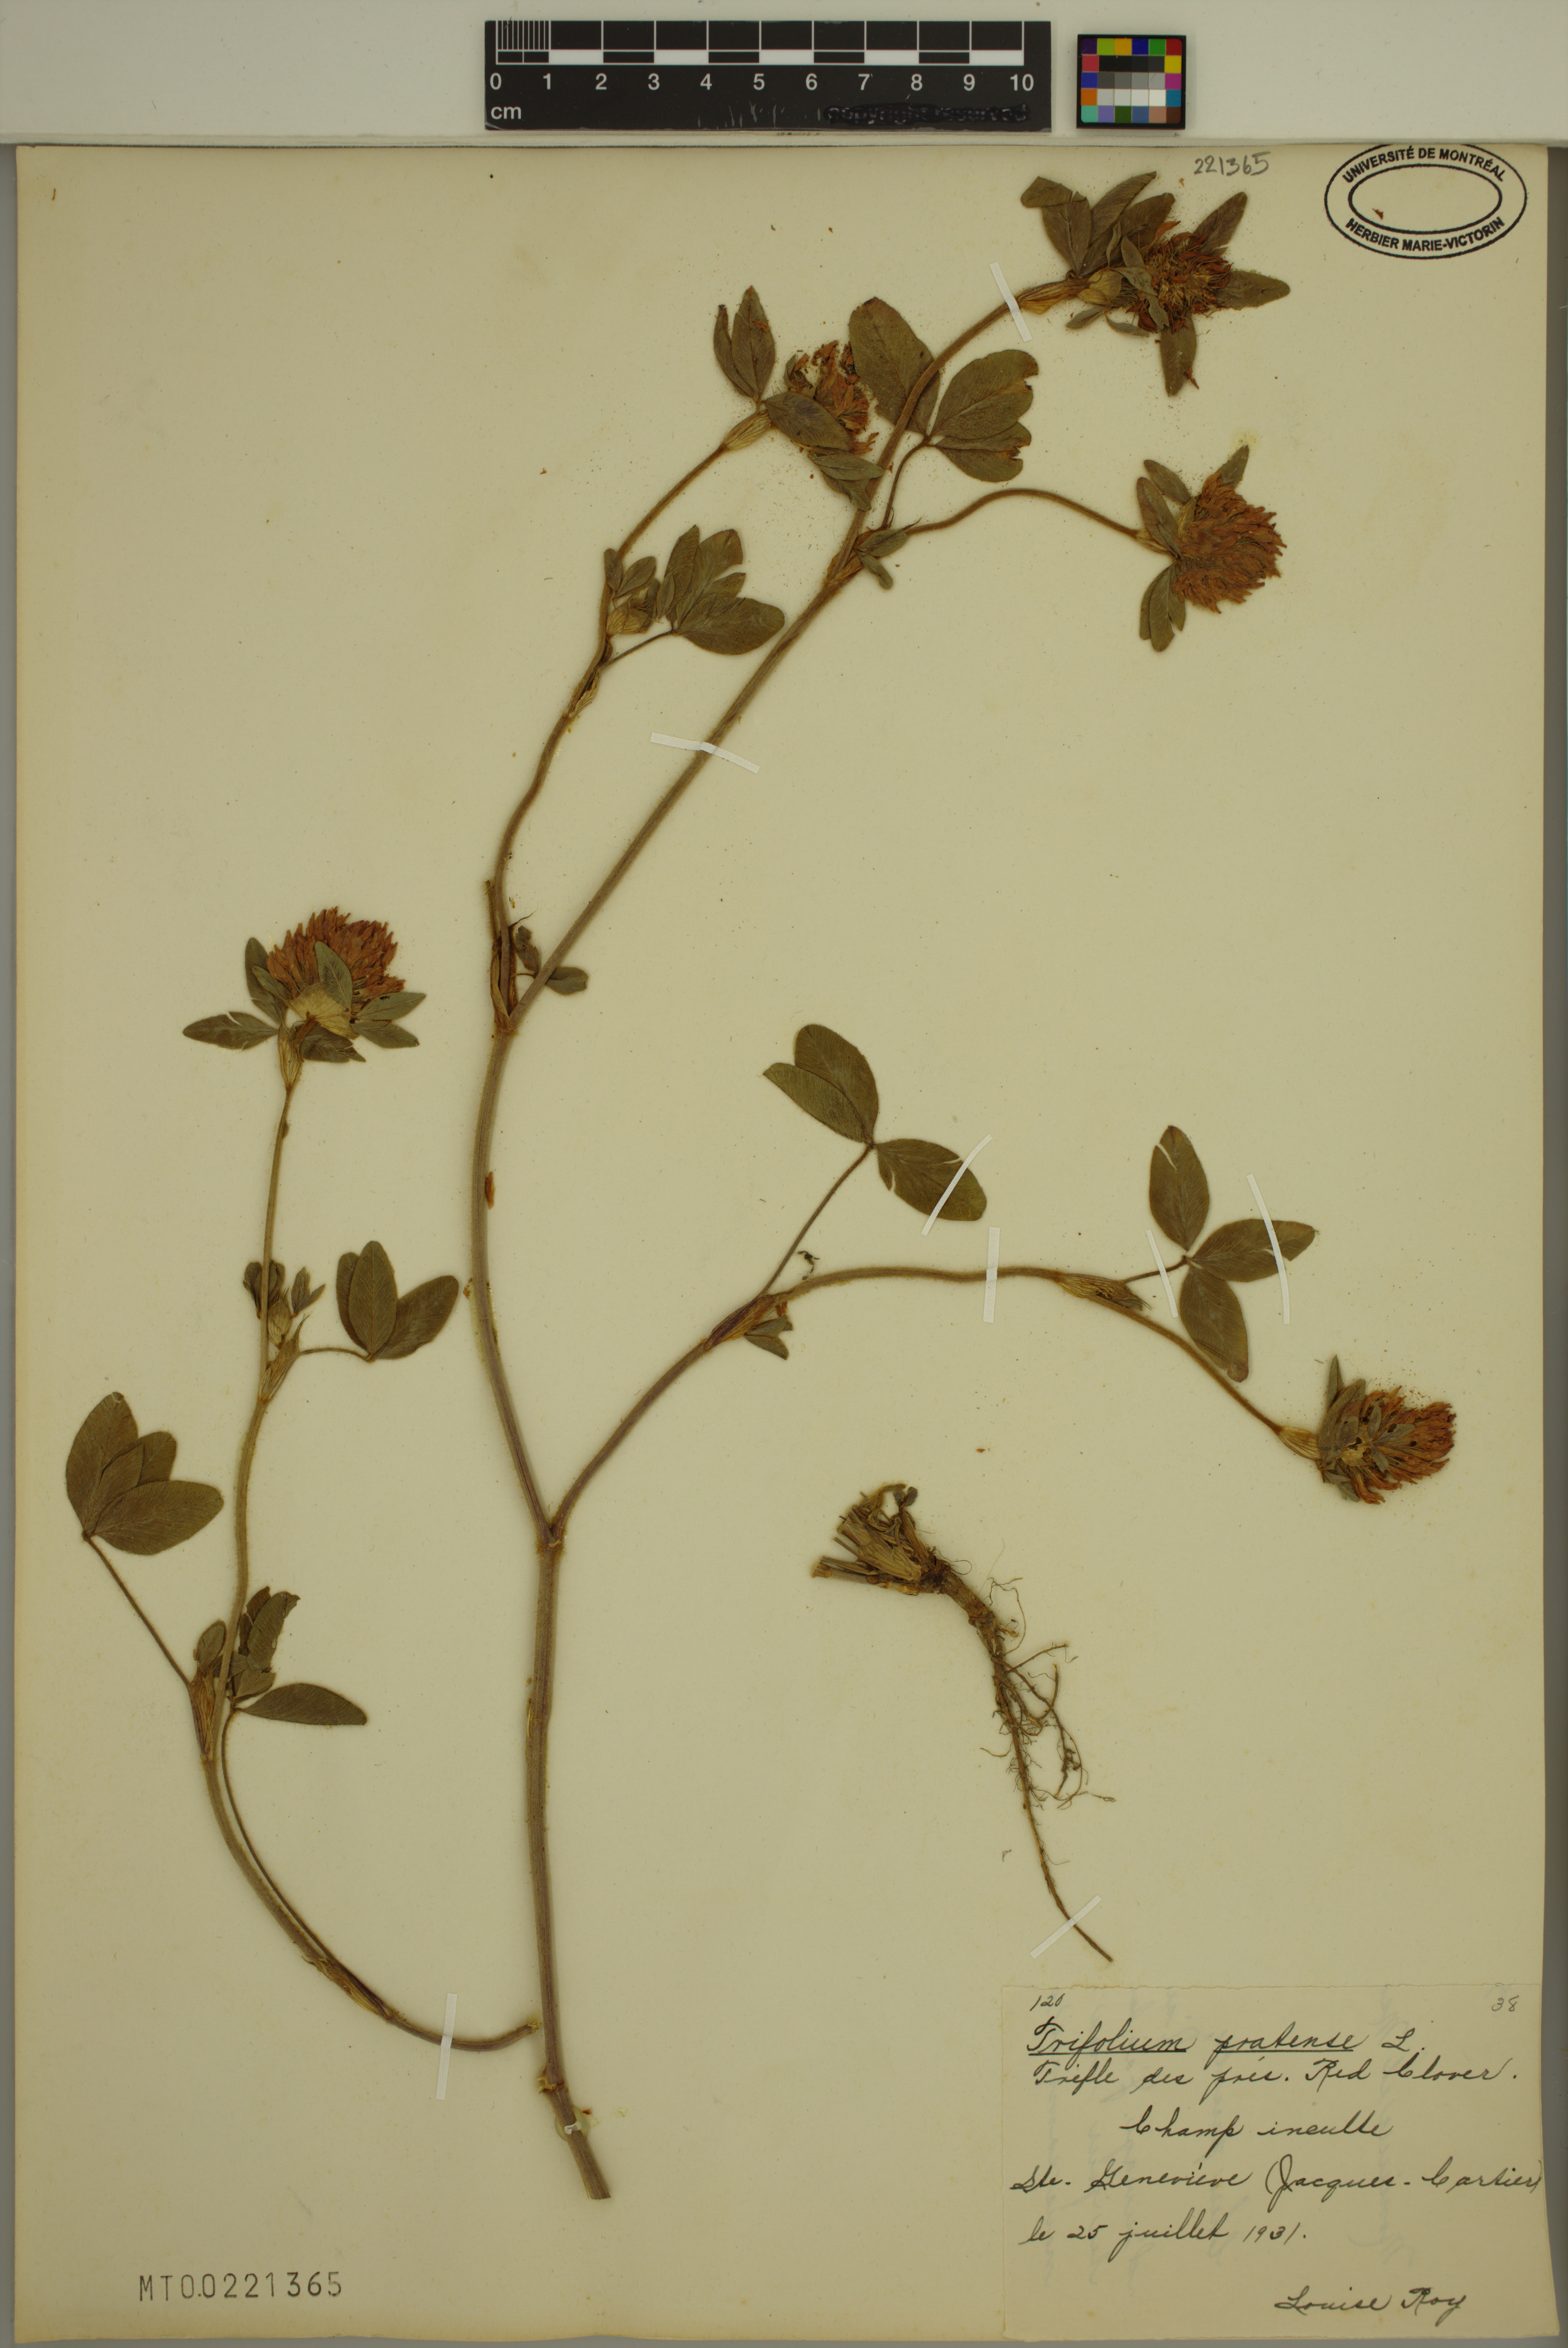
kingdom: Plantae
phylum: Tracheophyta
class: Magnoliopsida
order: Fabales
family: Fabaceae
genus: Trifolium
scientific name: Trifolium pratense
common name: Red clover
